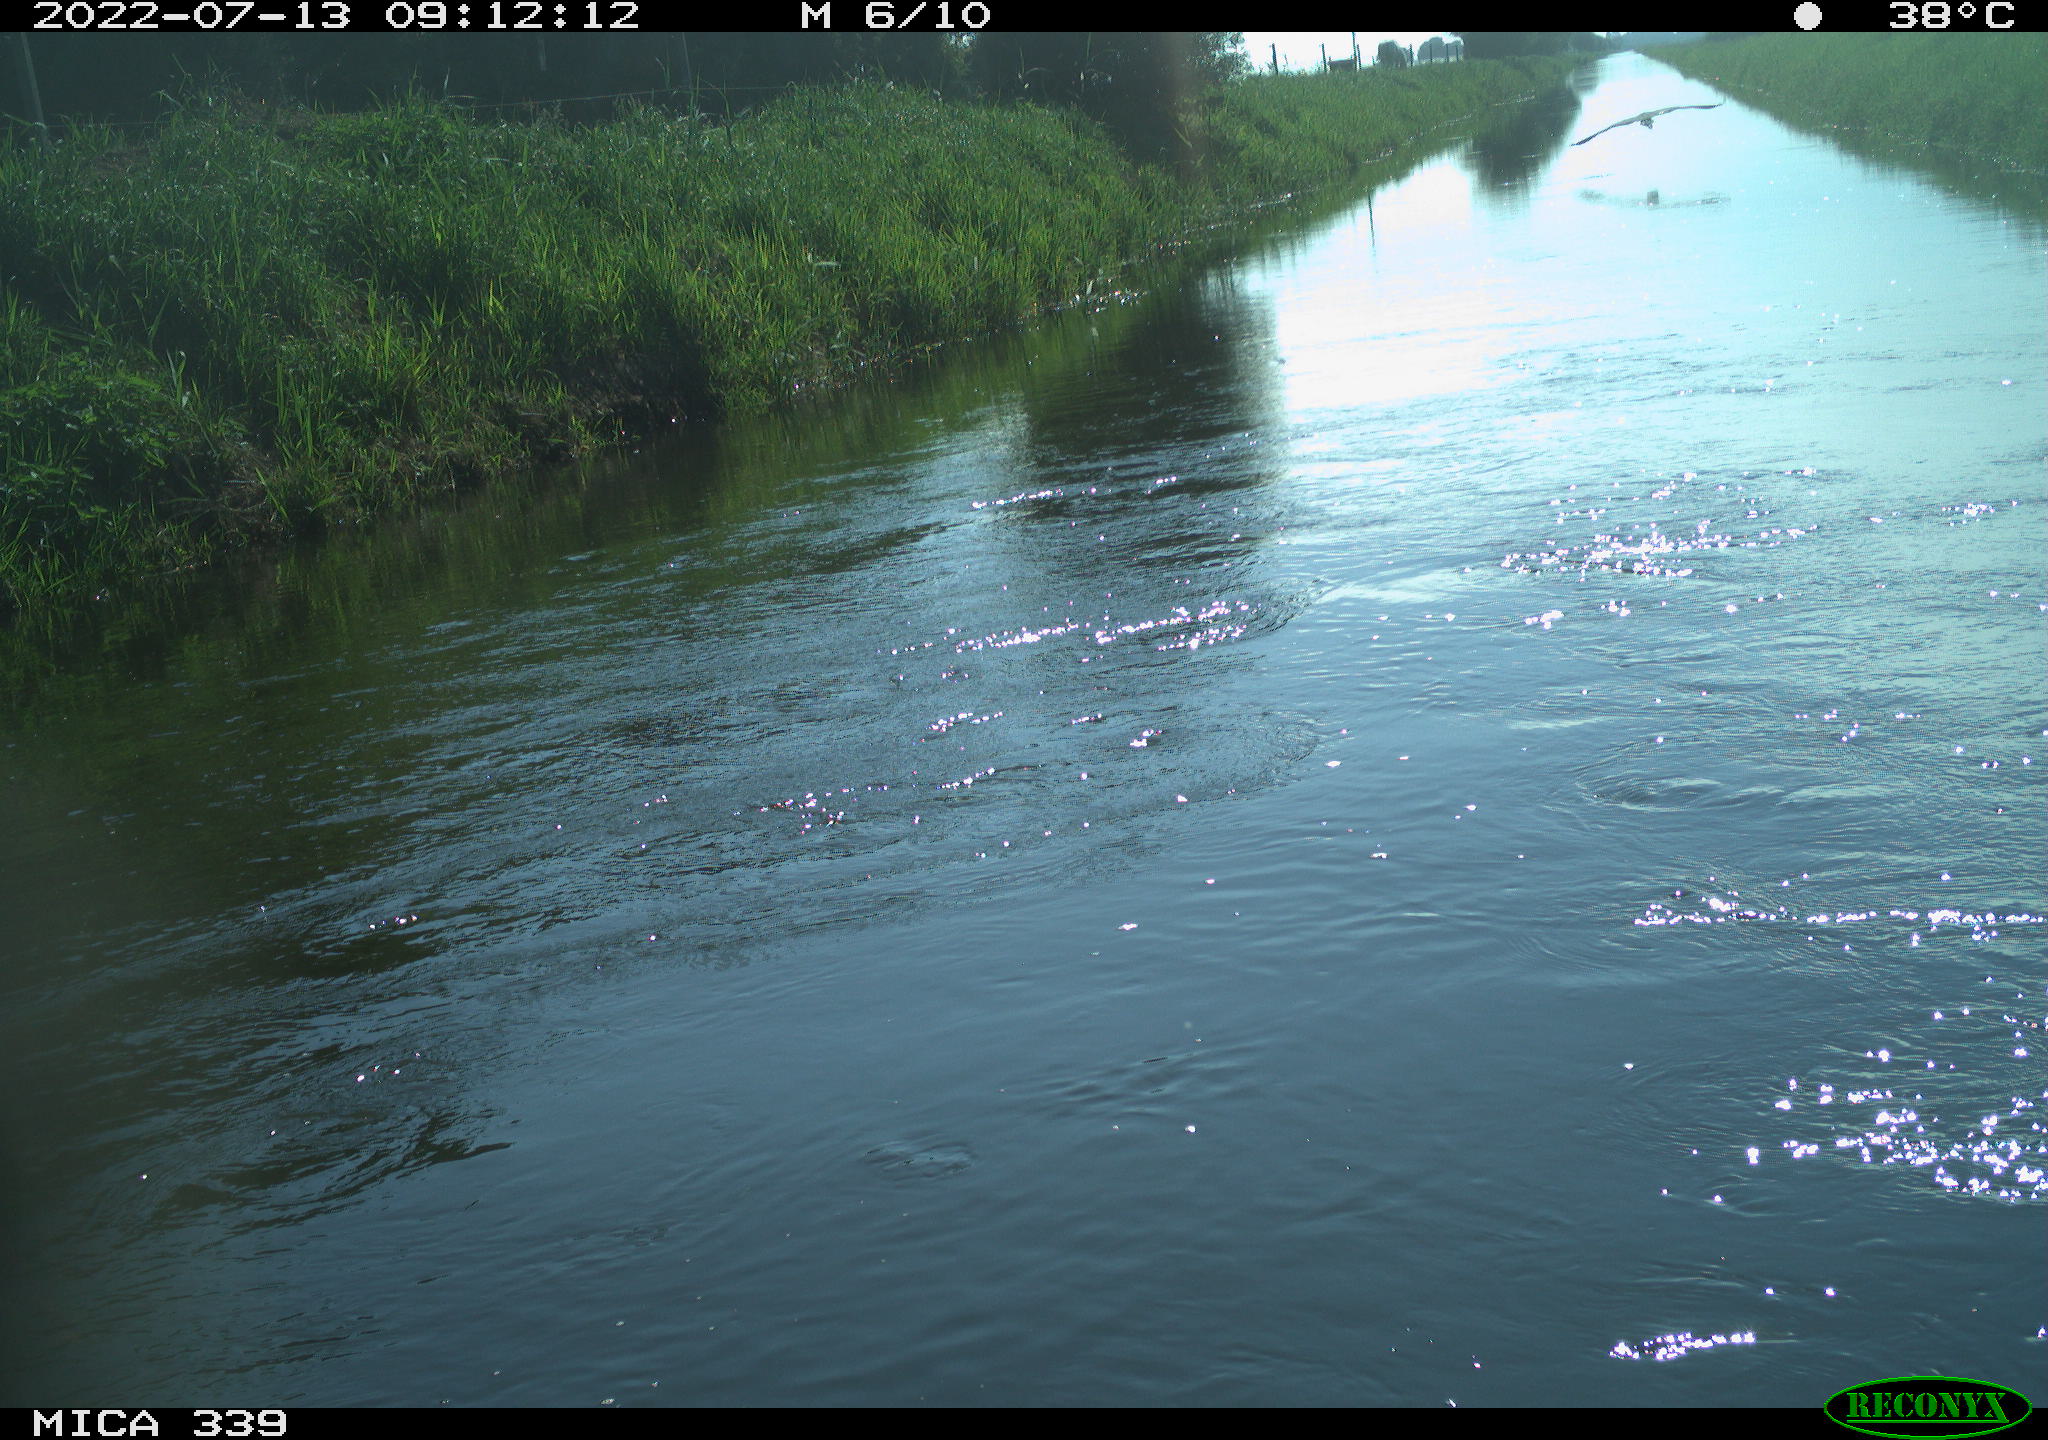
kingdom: Animalia
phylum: Chordata
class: Aves
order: Pelecaniformes
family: Ardeidae
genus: Ardea
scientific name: Ardea cinerea
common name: Grey heron
